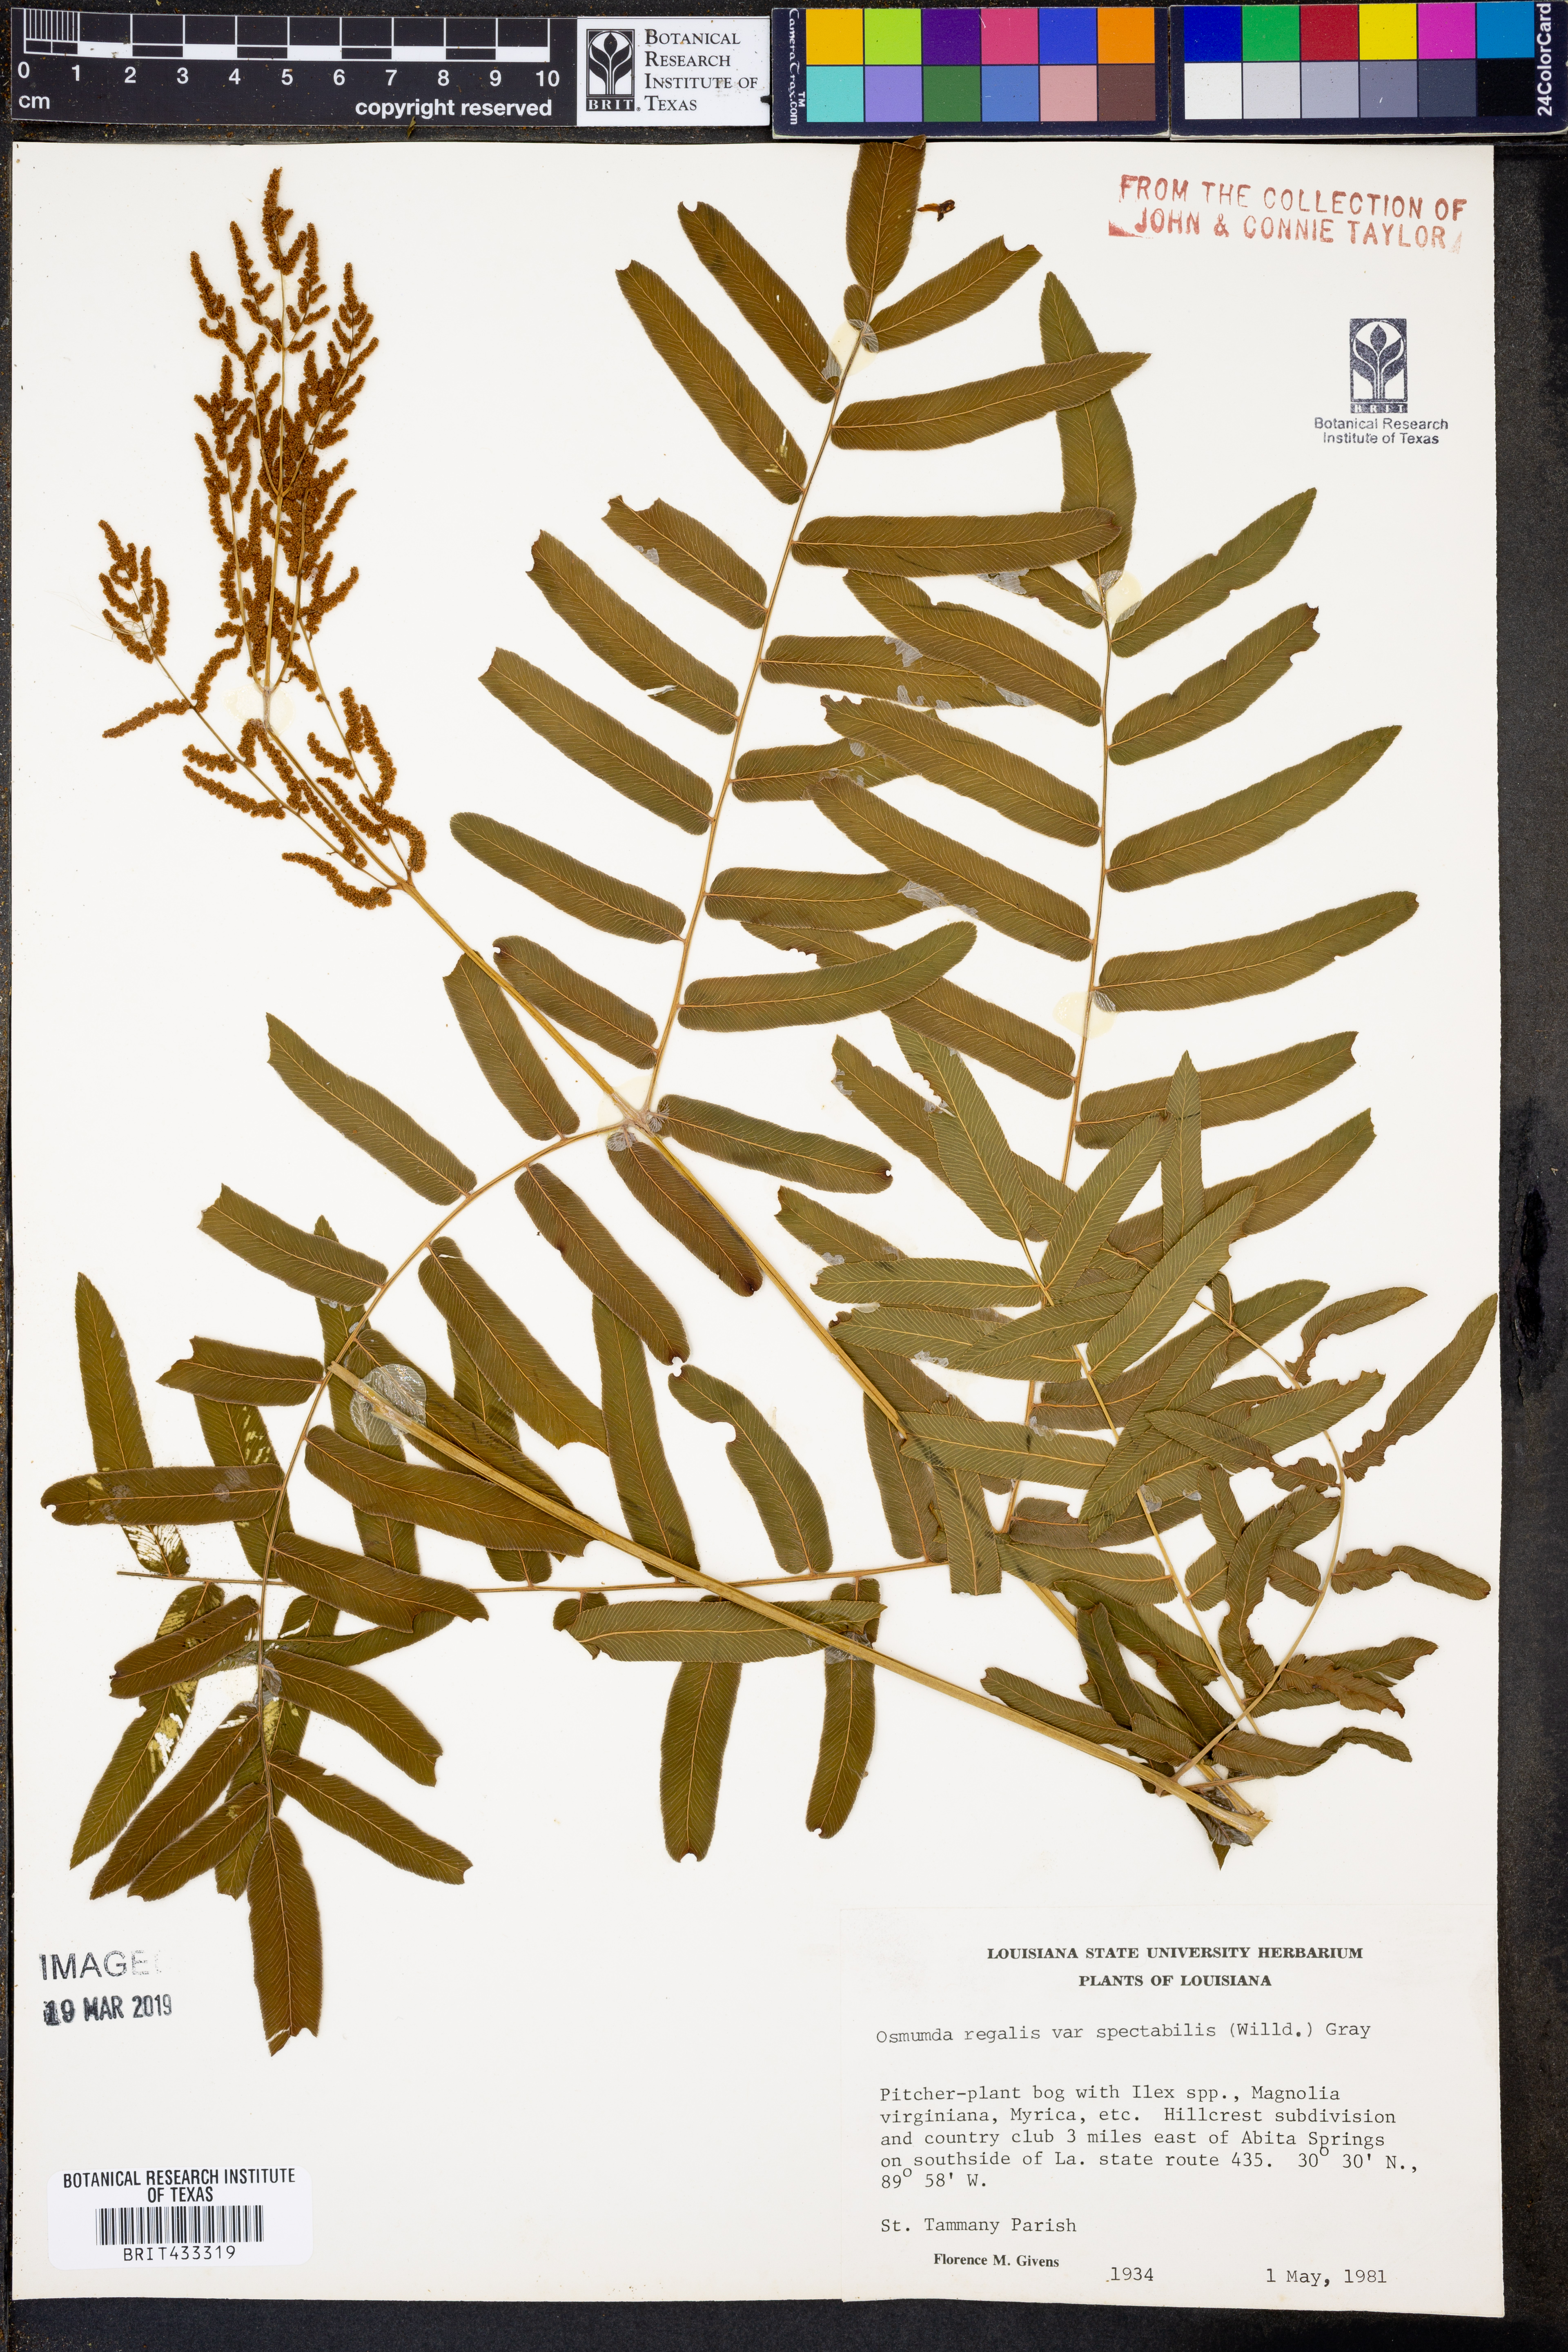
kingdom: Plantae
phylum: Tracheophyta
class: Polypodiopsida
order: Osmundales
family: Osmundaceae
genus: Osmunda
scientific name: Osmunda spectabilis
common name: American royal fern
